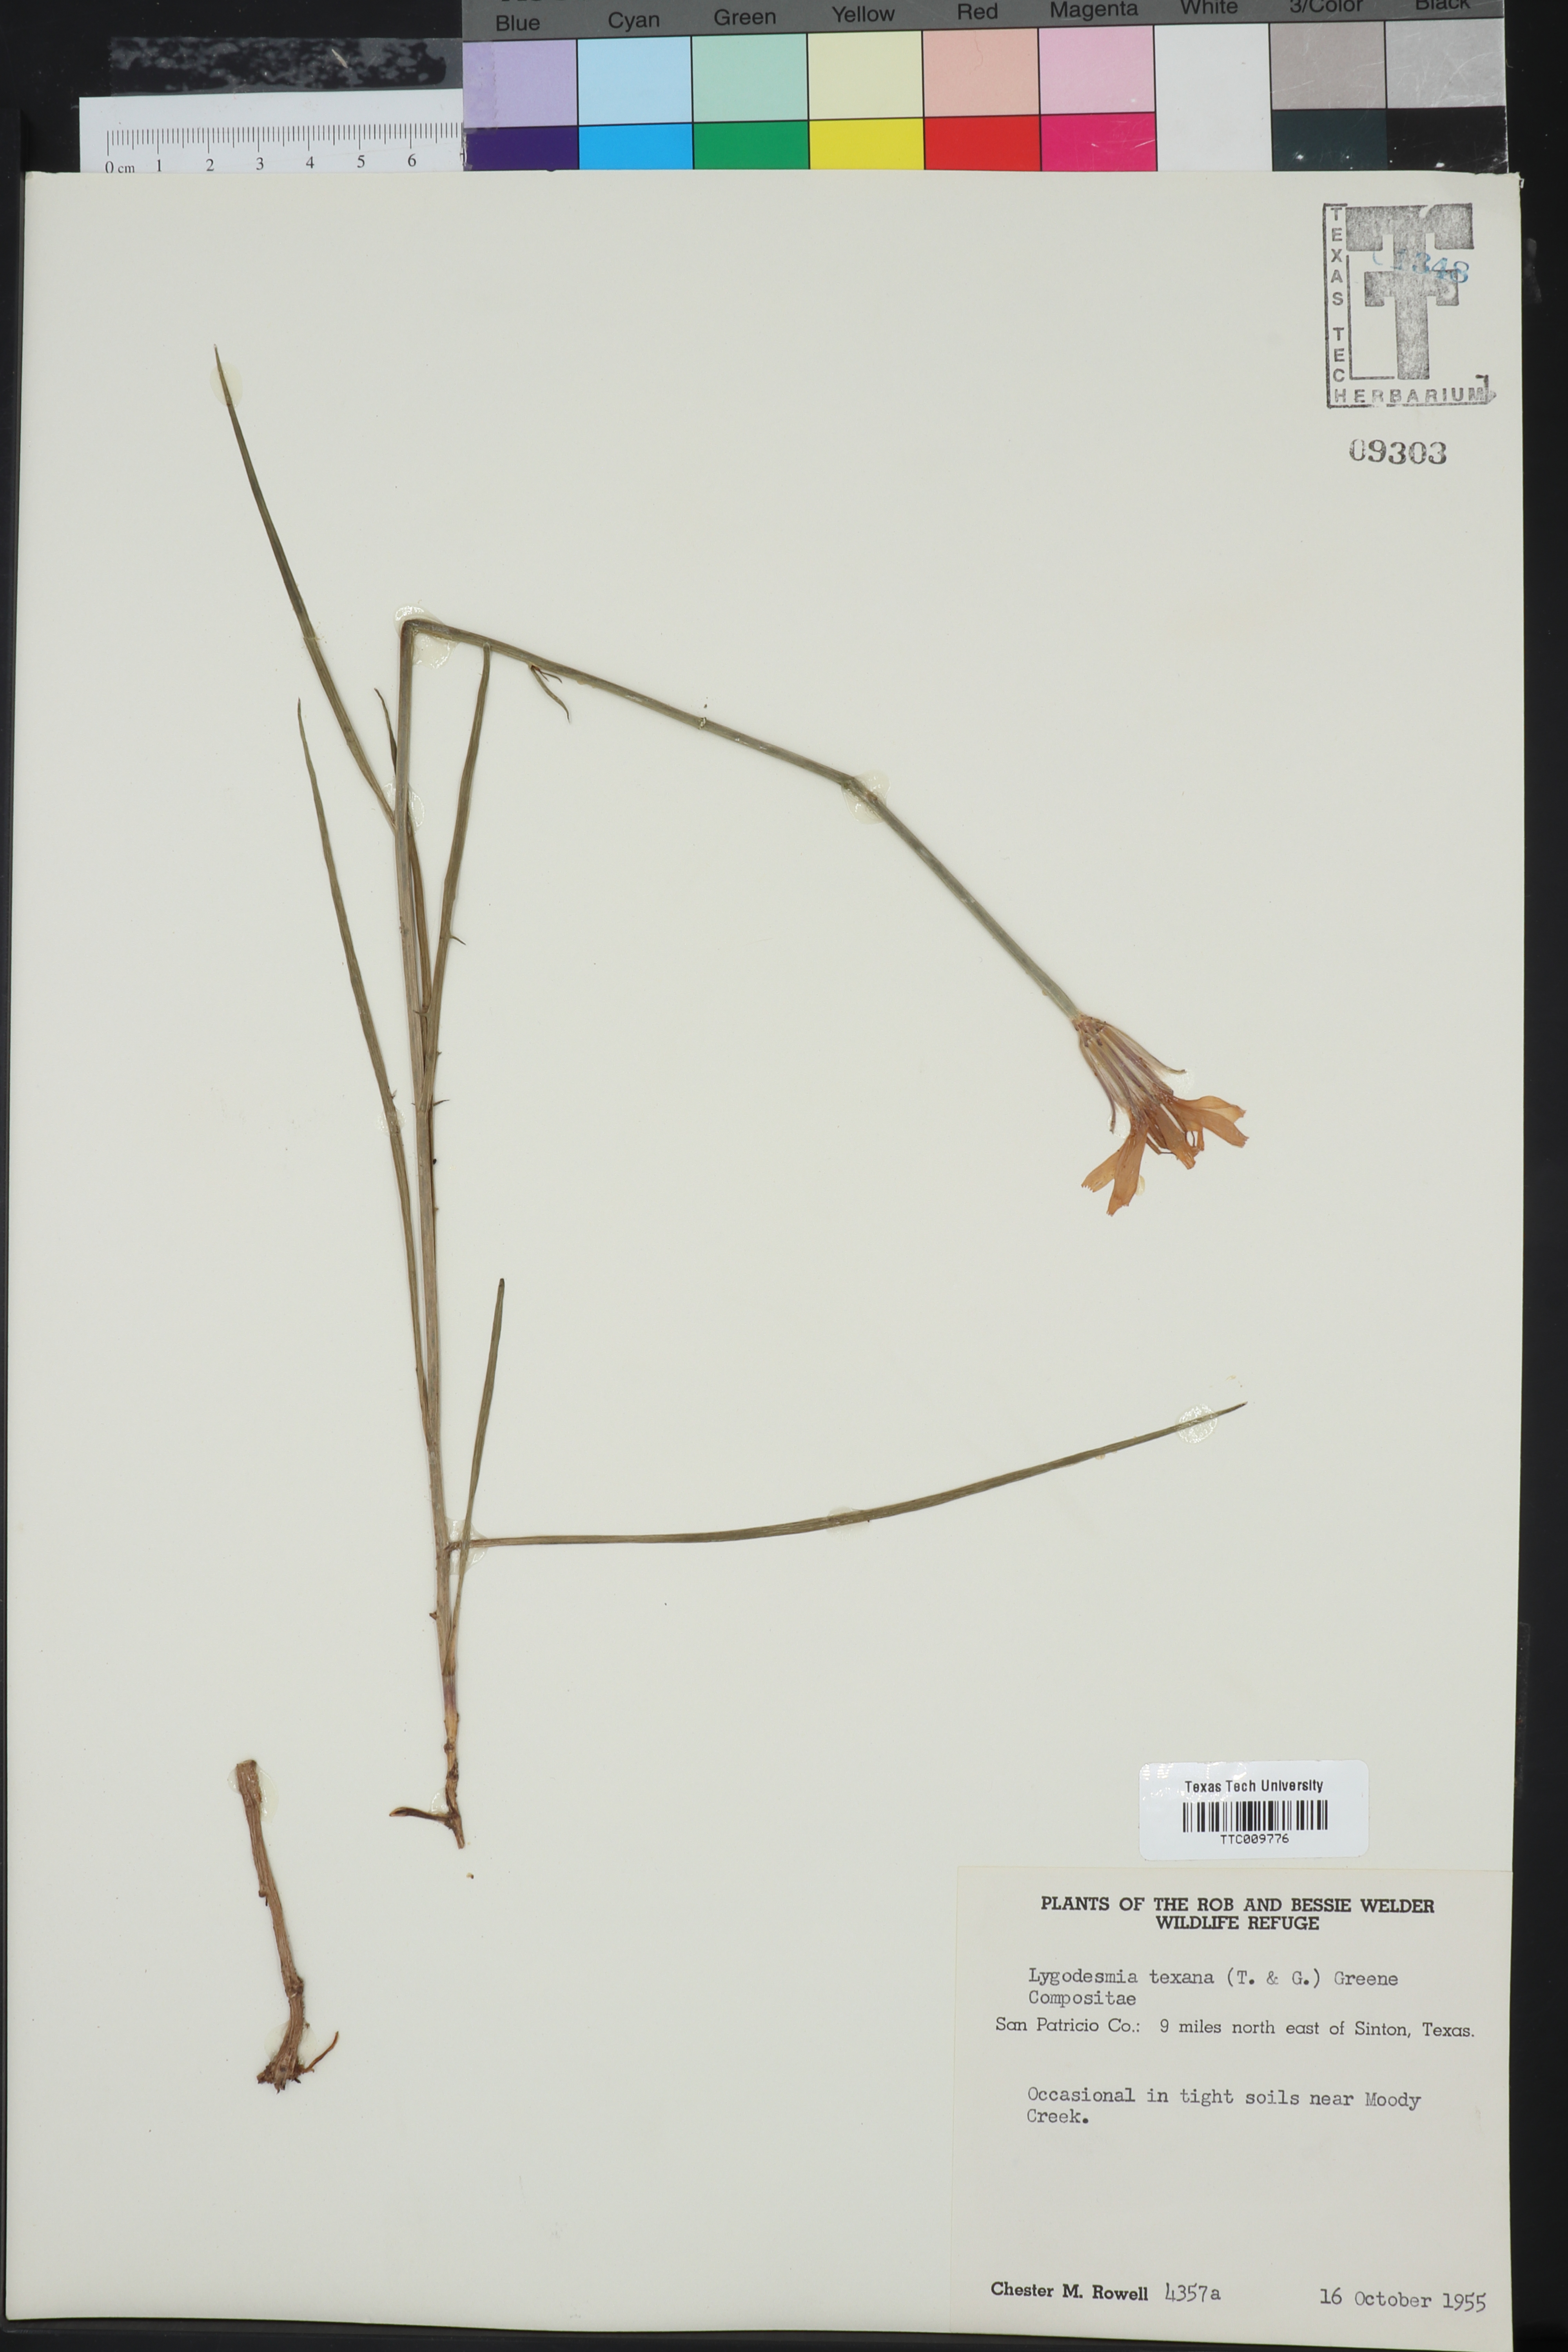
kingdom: Plantae
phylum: Tracheophyta
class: Magnoliopsida
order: Asterales
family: Asteraceae
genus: Lygodesmia
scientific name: Lygodesmia texana
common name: Texas skeleton-plant
